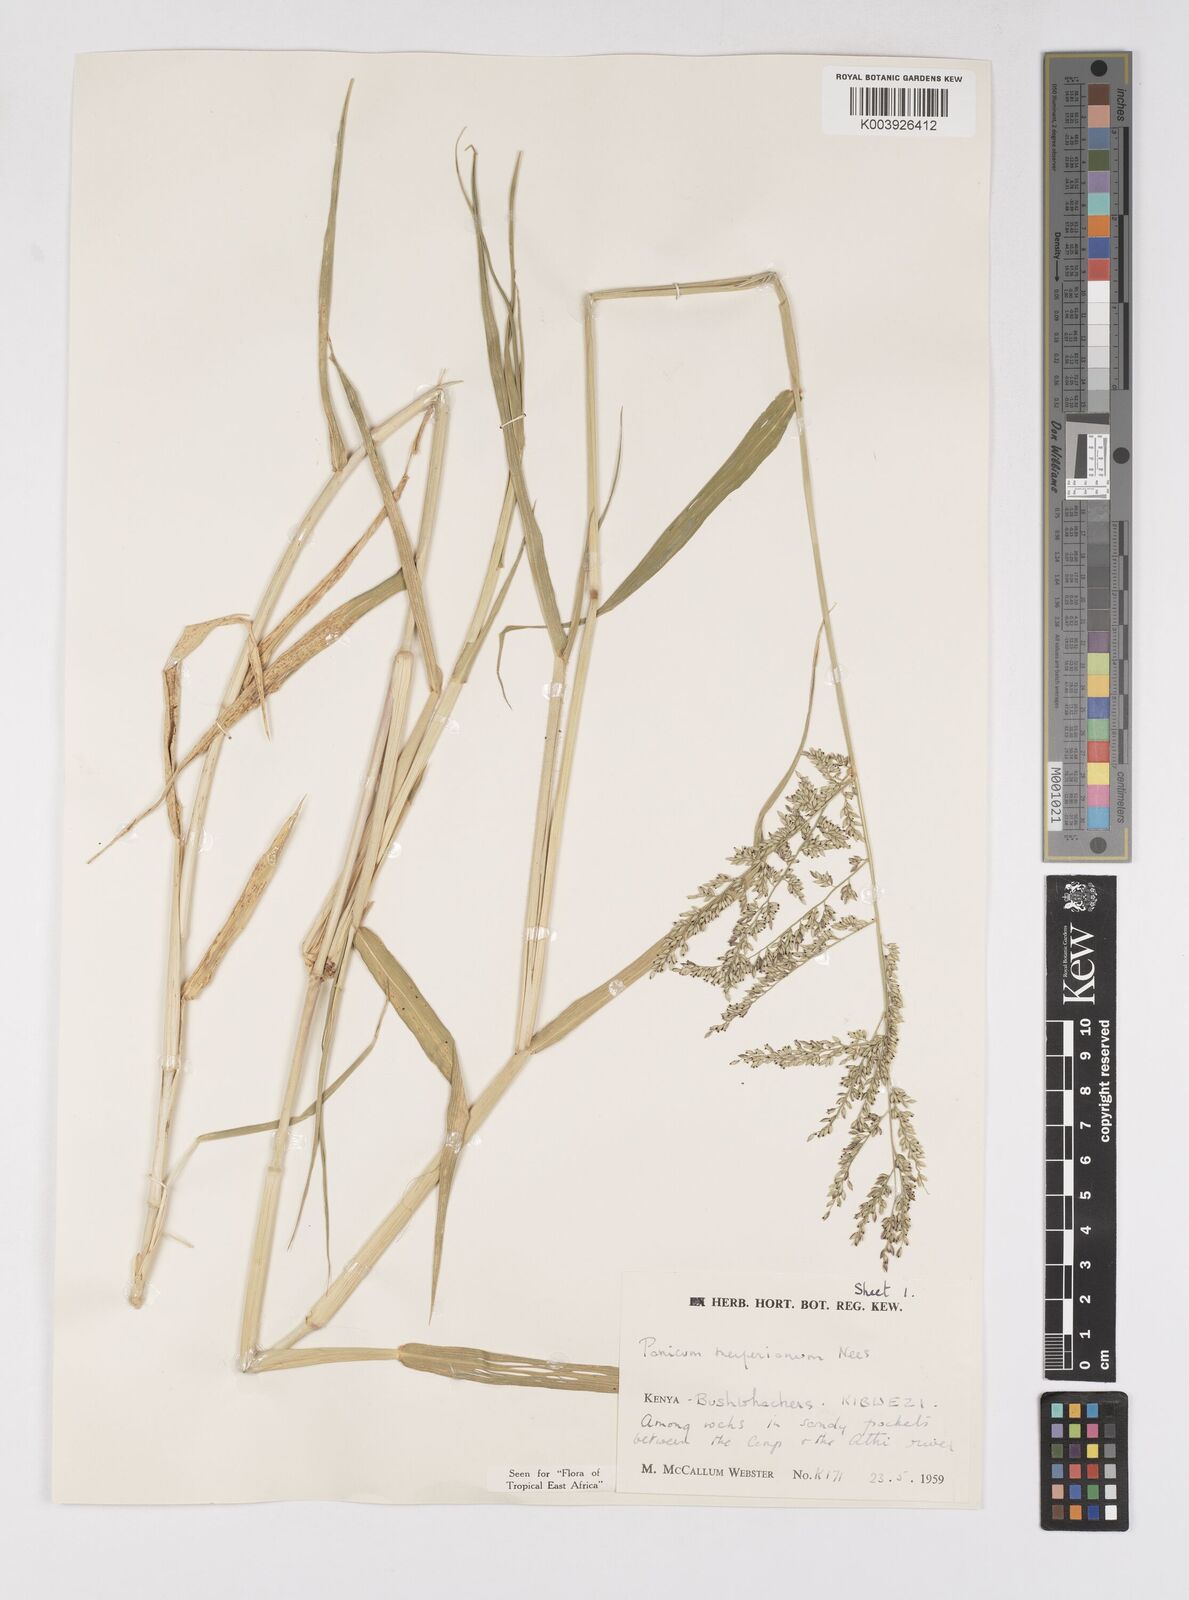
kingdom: Plantae
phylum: Tracheophyta
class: Liliopsida
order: Poales
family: Poaceae
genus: Eriochloa
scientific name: Eriochloa meyeriana
